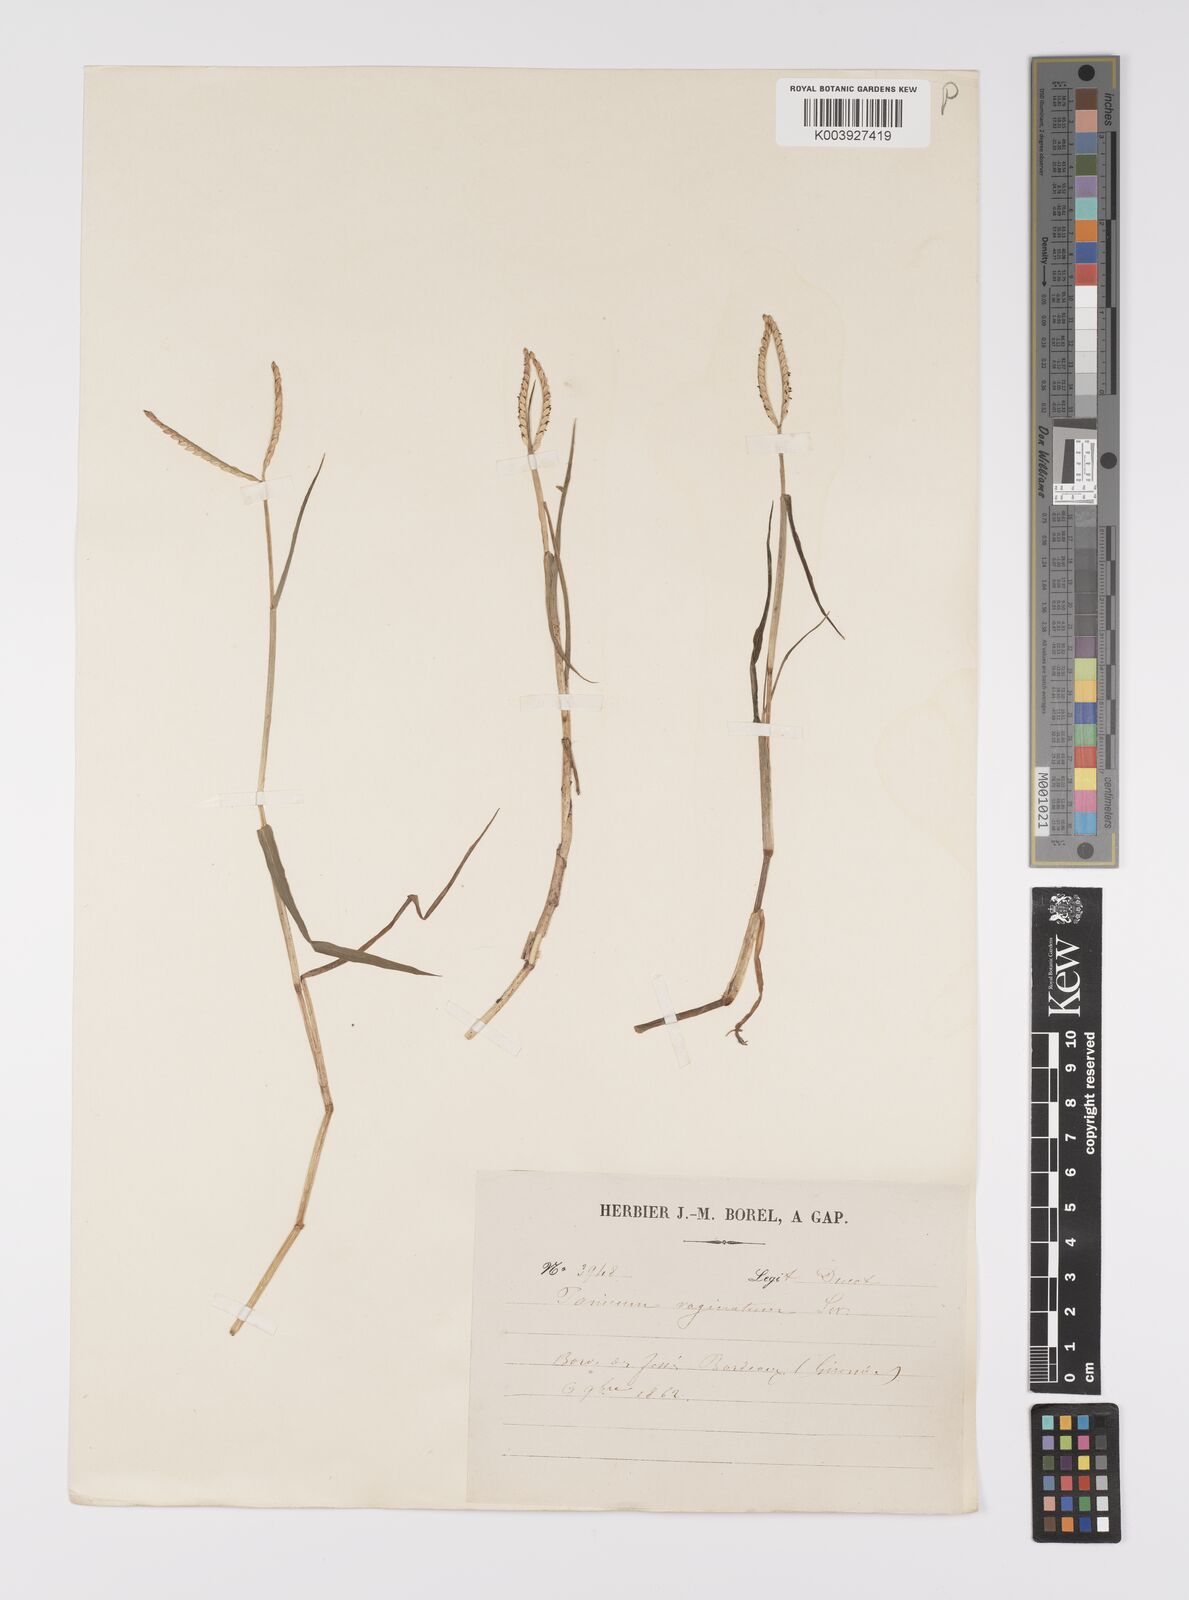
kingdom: Plantae
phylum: Tracheophyta
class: Liliopsida
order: Poales
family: Poaceae
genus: Paspalum
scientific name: Paspalum distichum
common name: Knotgrass
